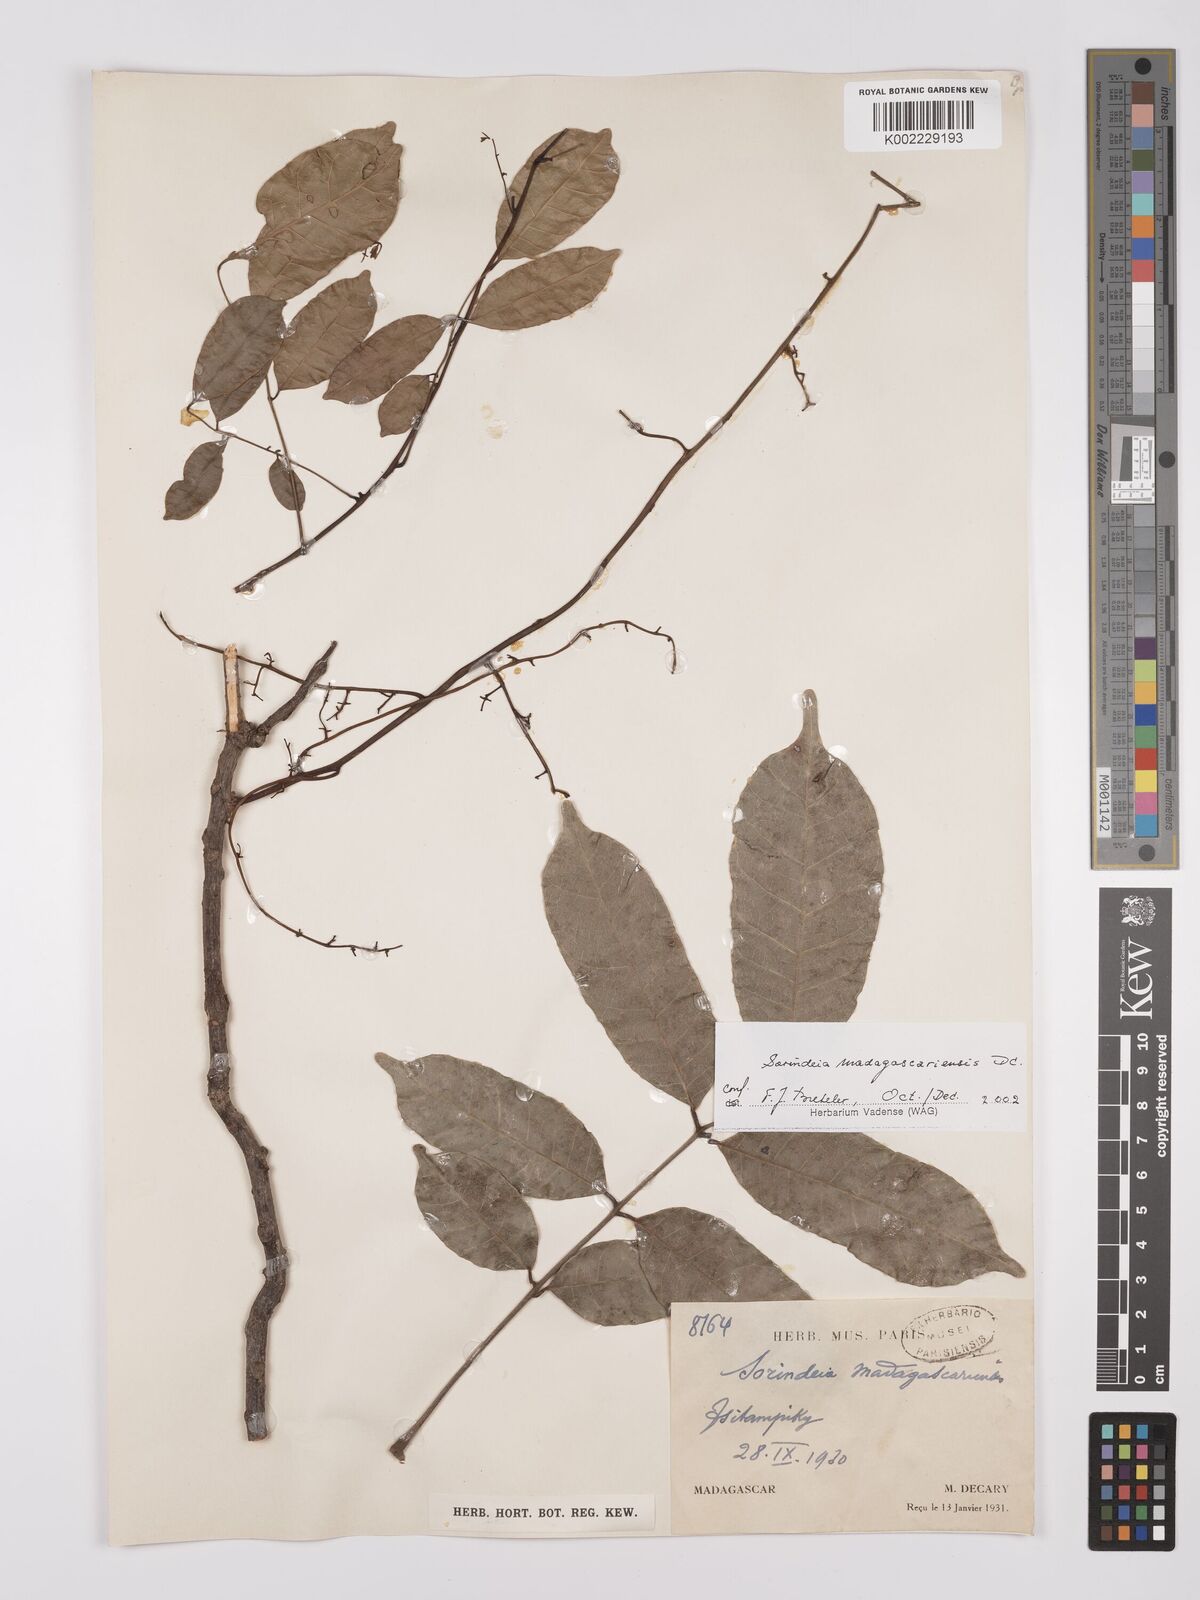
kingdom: Plantae
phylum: Tracheophyta
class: Magnoliopsida
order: Sapindales
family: Anacardiaceae
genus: Sorindeia
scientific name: Sorindeia madagascariensis
